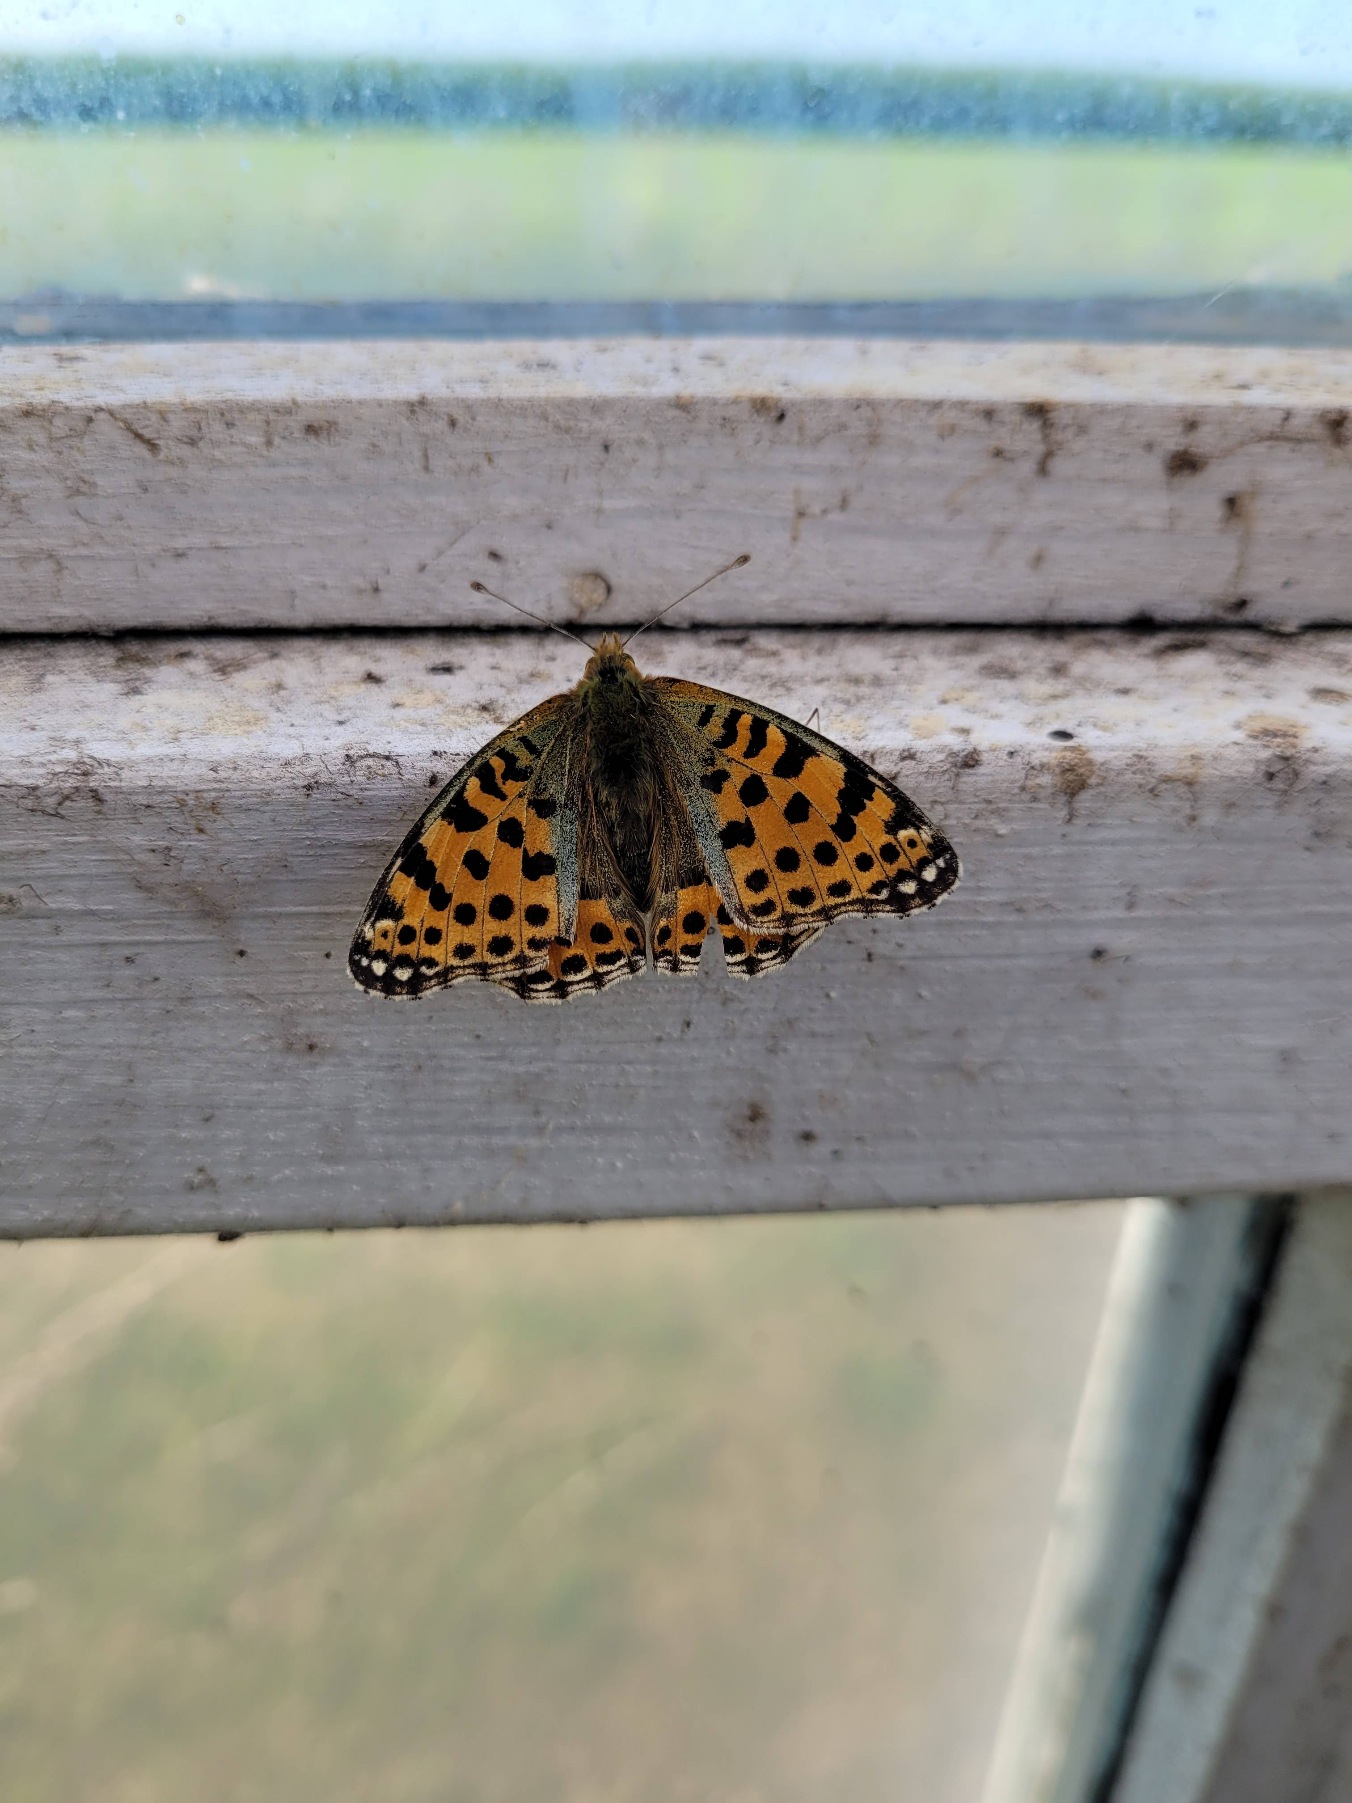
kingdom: Animalia
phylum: Arthropoda
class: Insecta
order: Lepidoptera
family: Nymphalidae
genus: Issoria
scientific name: Issoria lathonia
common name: Storplettet perlemorsommerfugl
